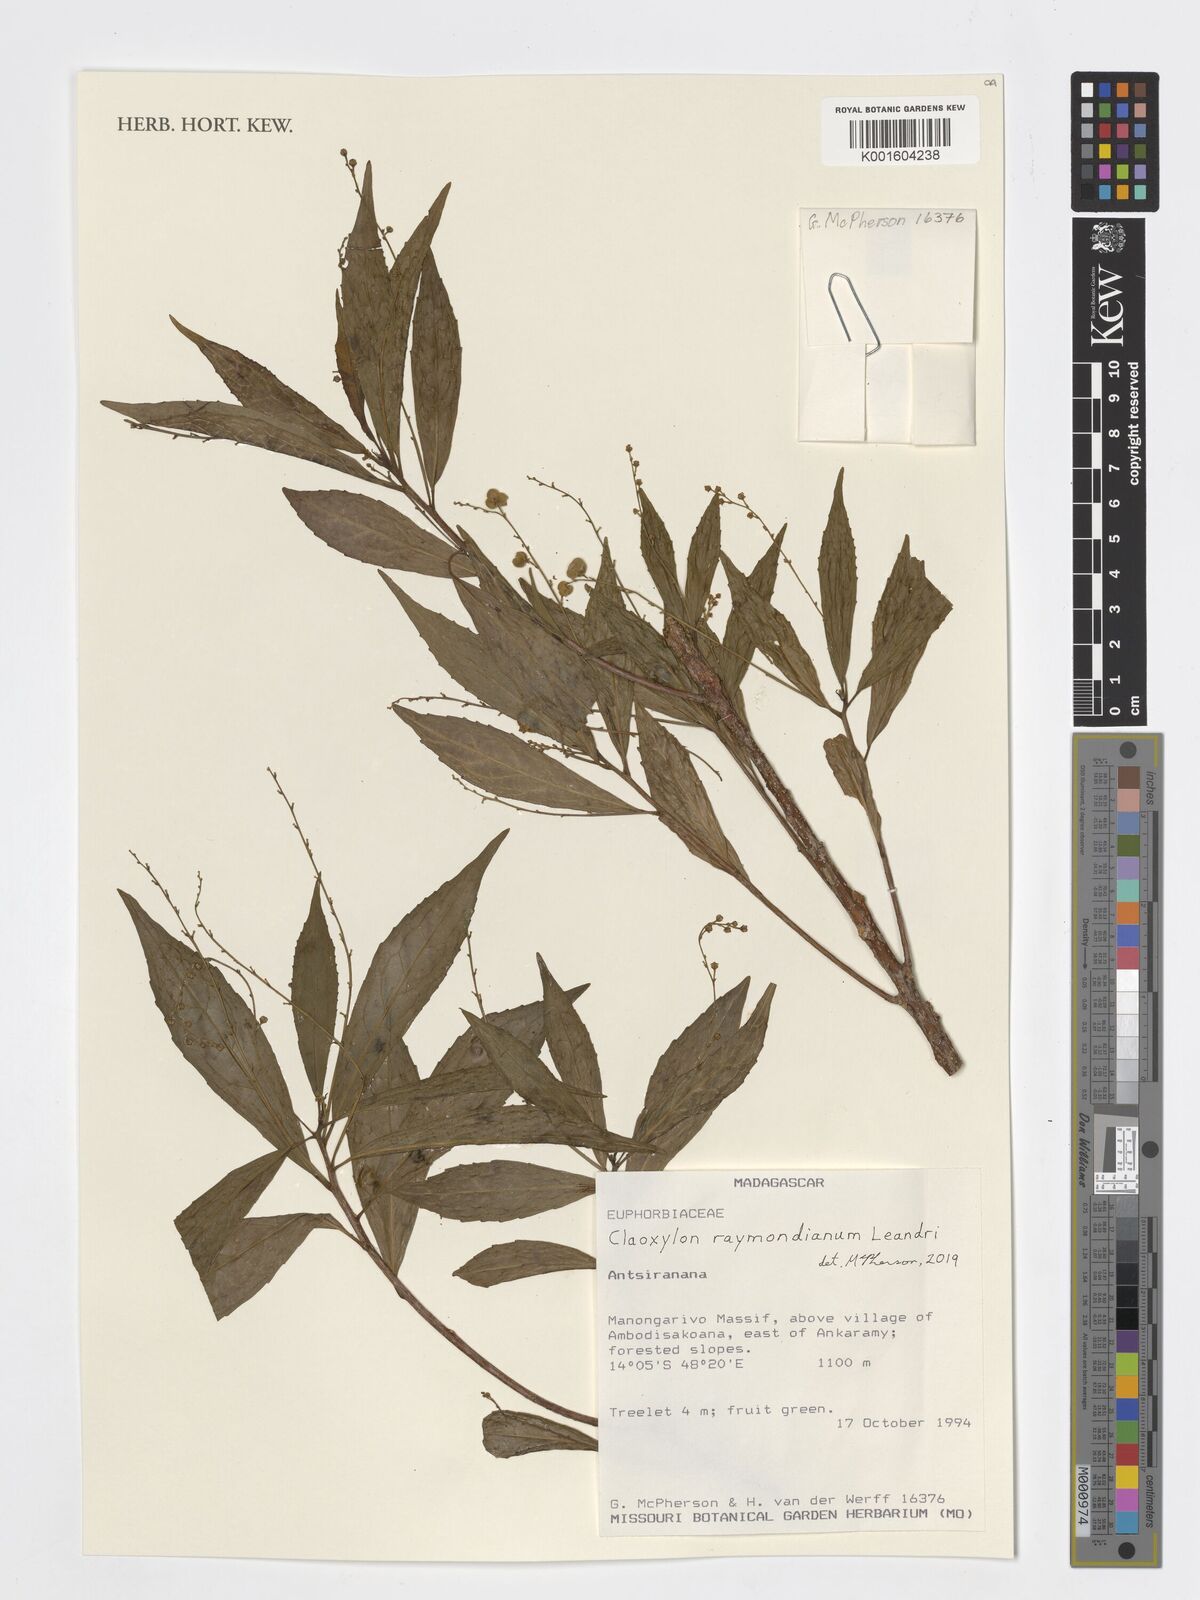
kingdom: Plantae
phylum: Tracheophyta
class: Magnoliopsida
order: Malpighiales
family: Euphorbiaceae
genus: Claoxylon
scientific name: Claoxylon raymondianum
